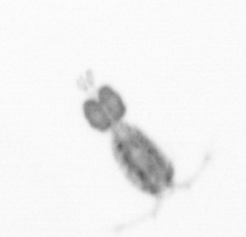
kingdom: Animalia
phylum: Arthropoda
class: Copepoda
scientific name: Copepoda
